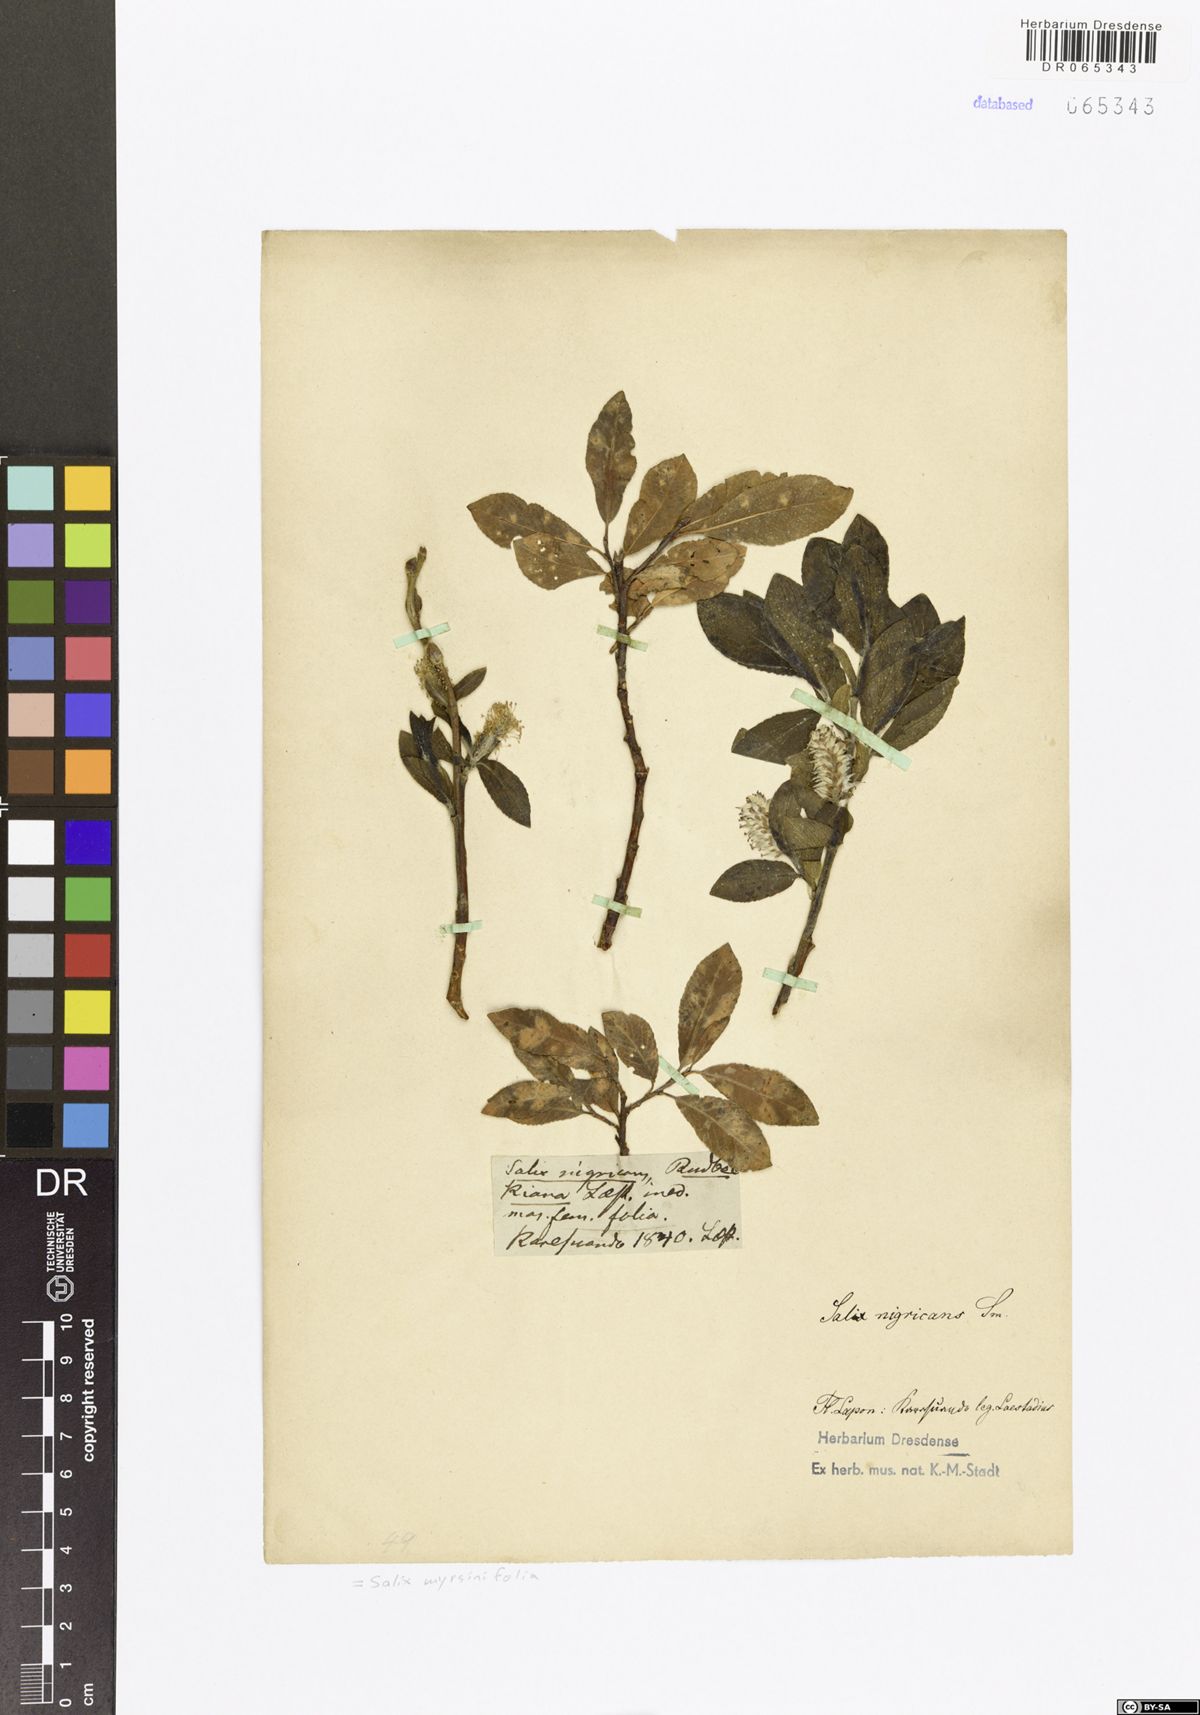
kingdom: Plantae
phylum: Tracheophyta
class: Magnoliopsida
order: Malpighiales
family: Salicaceae
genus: Salix
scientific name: Salix myrsinifolia
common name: Dark-leaved willow
